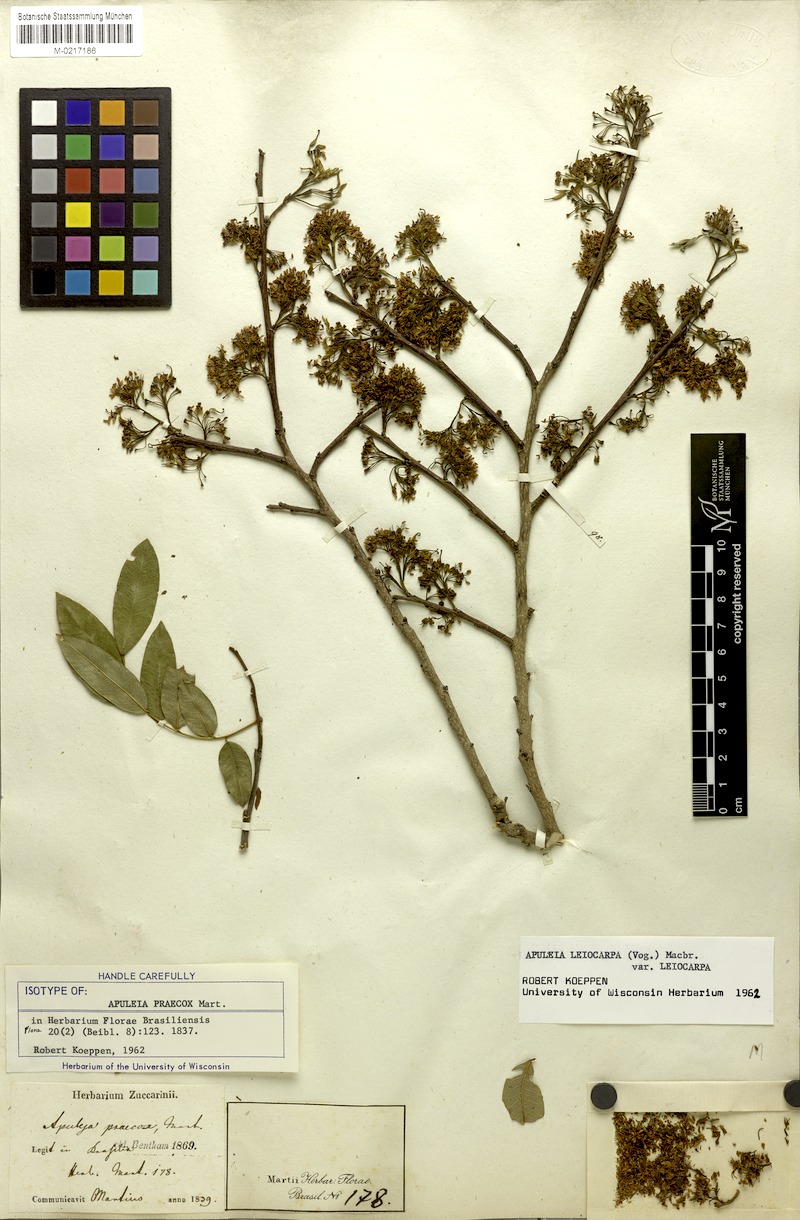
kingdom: Plantae
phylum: Tracheophyta
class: Magnoliopsida
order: Fabales
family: Fabaceae
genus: Apuleia
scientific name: Apuleia leiocarpa
